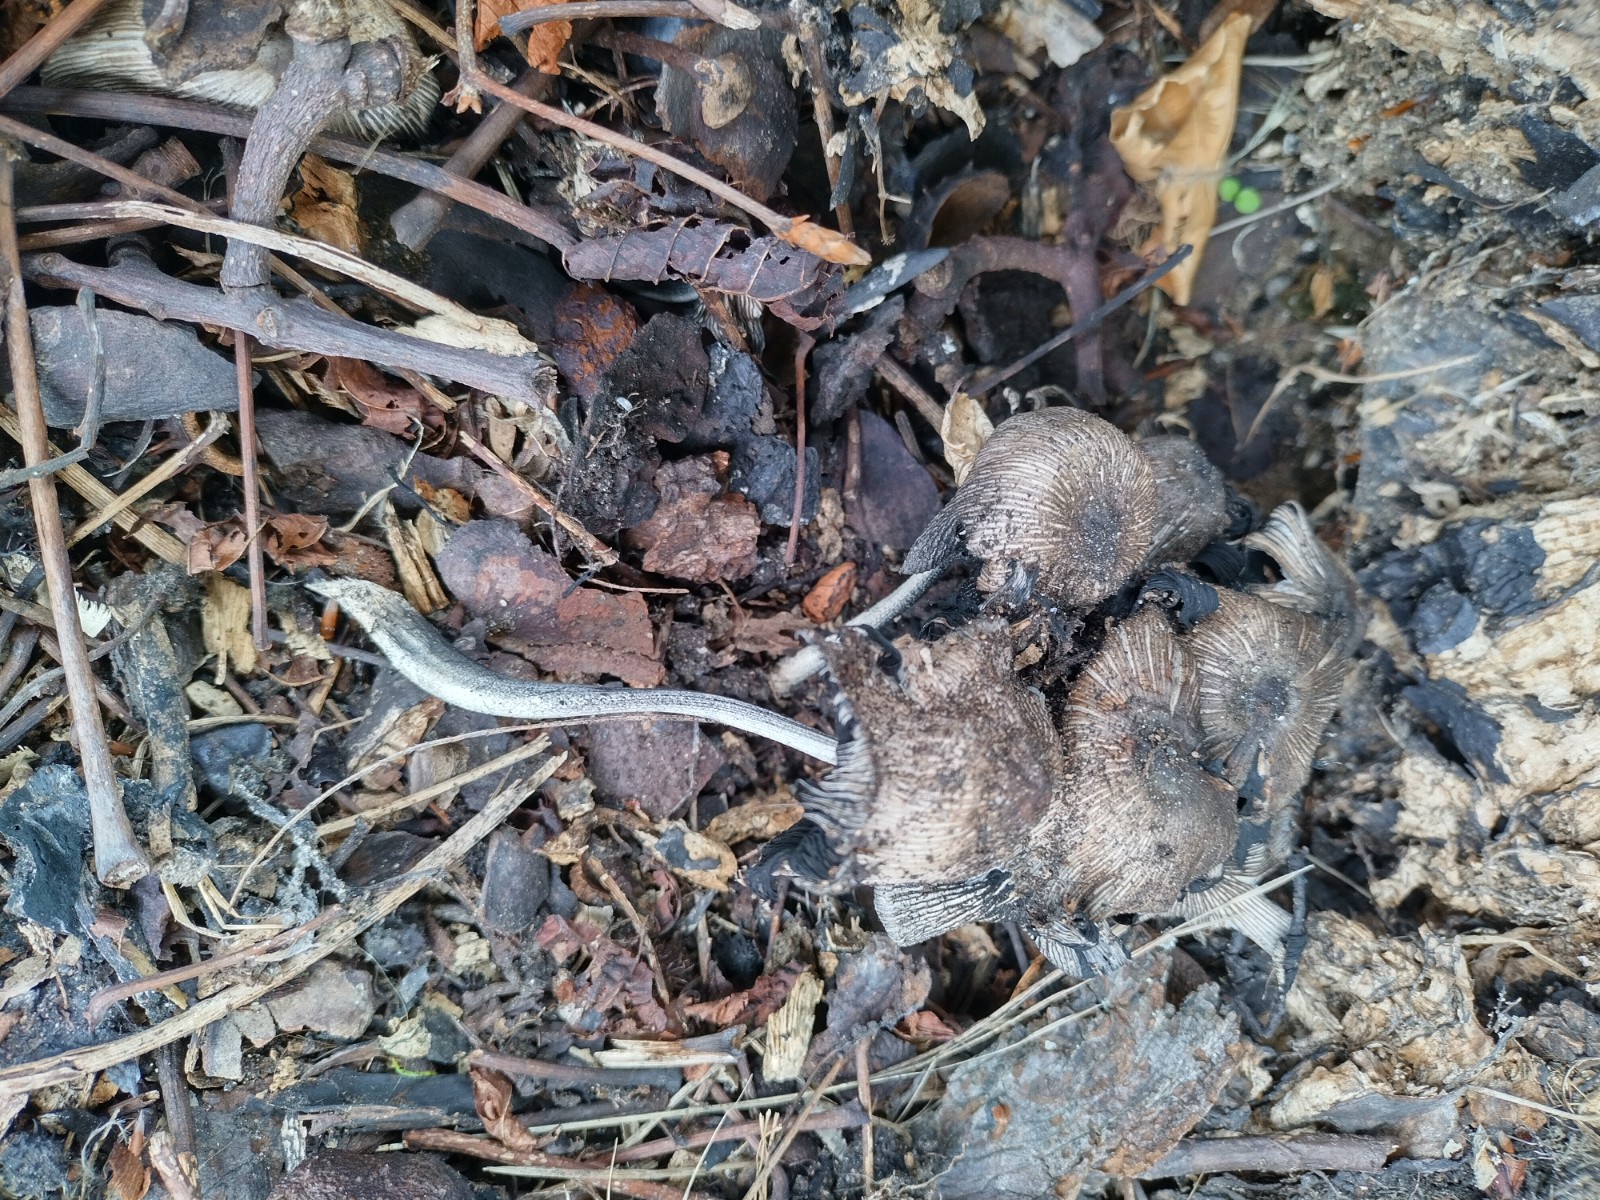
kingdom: Fungi
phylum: Basidiomycota
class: Agaricomycetes
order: Agaricales
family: Psathyrellaceae
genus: Coprinopsis
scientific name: Coprinopsis
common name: blækhat
